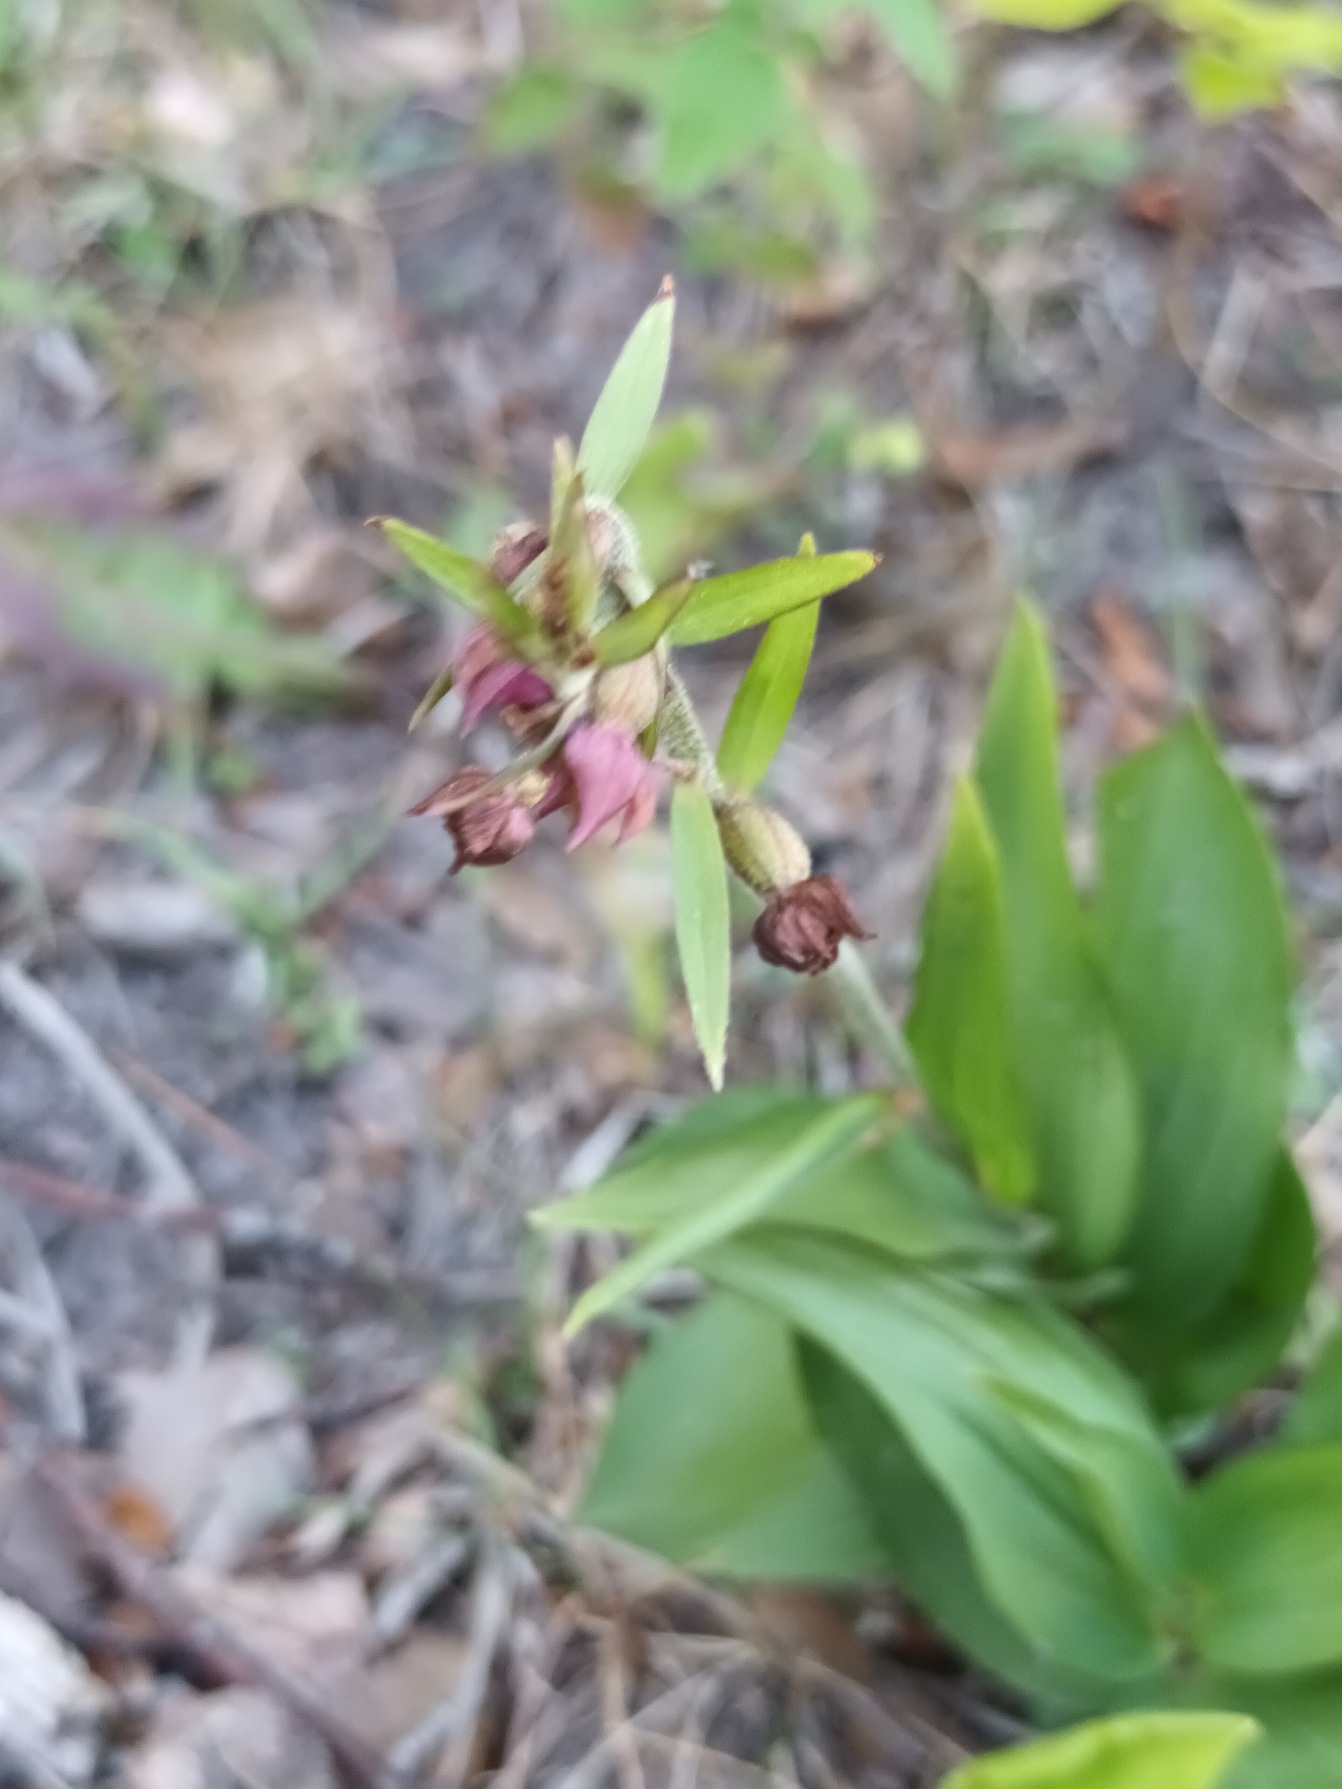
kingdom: Plantae
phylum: Tracheophyta
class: Liliopsida
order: Asparagales
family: Orchidaceae
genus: Epipactis
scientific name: Epipactis atrorubens
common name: Rød hullæbe
